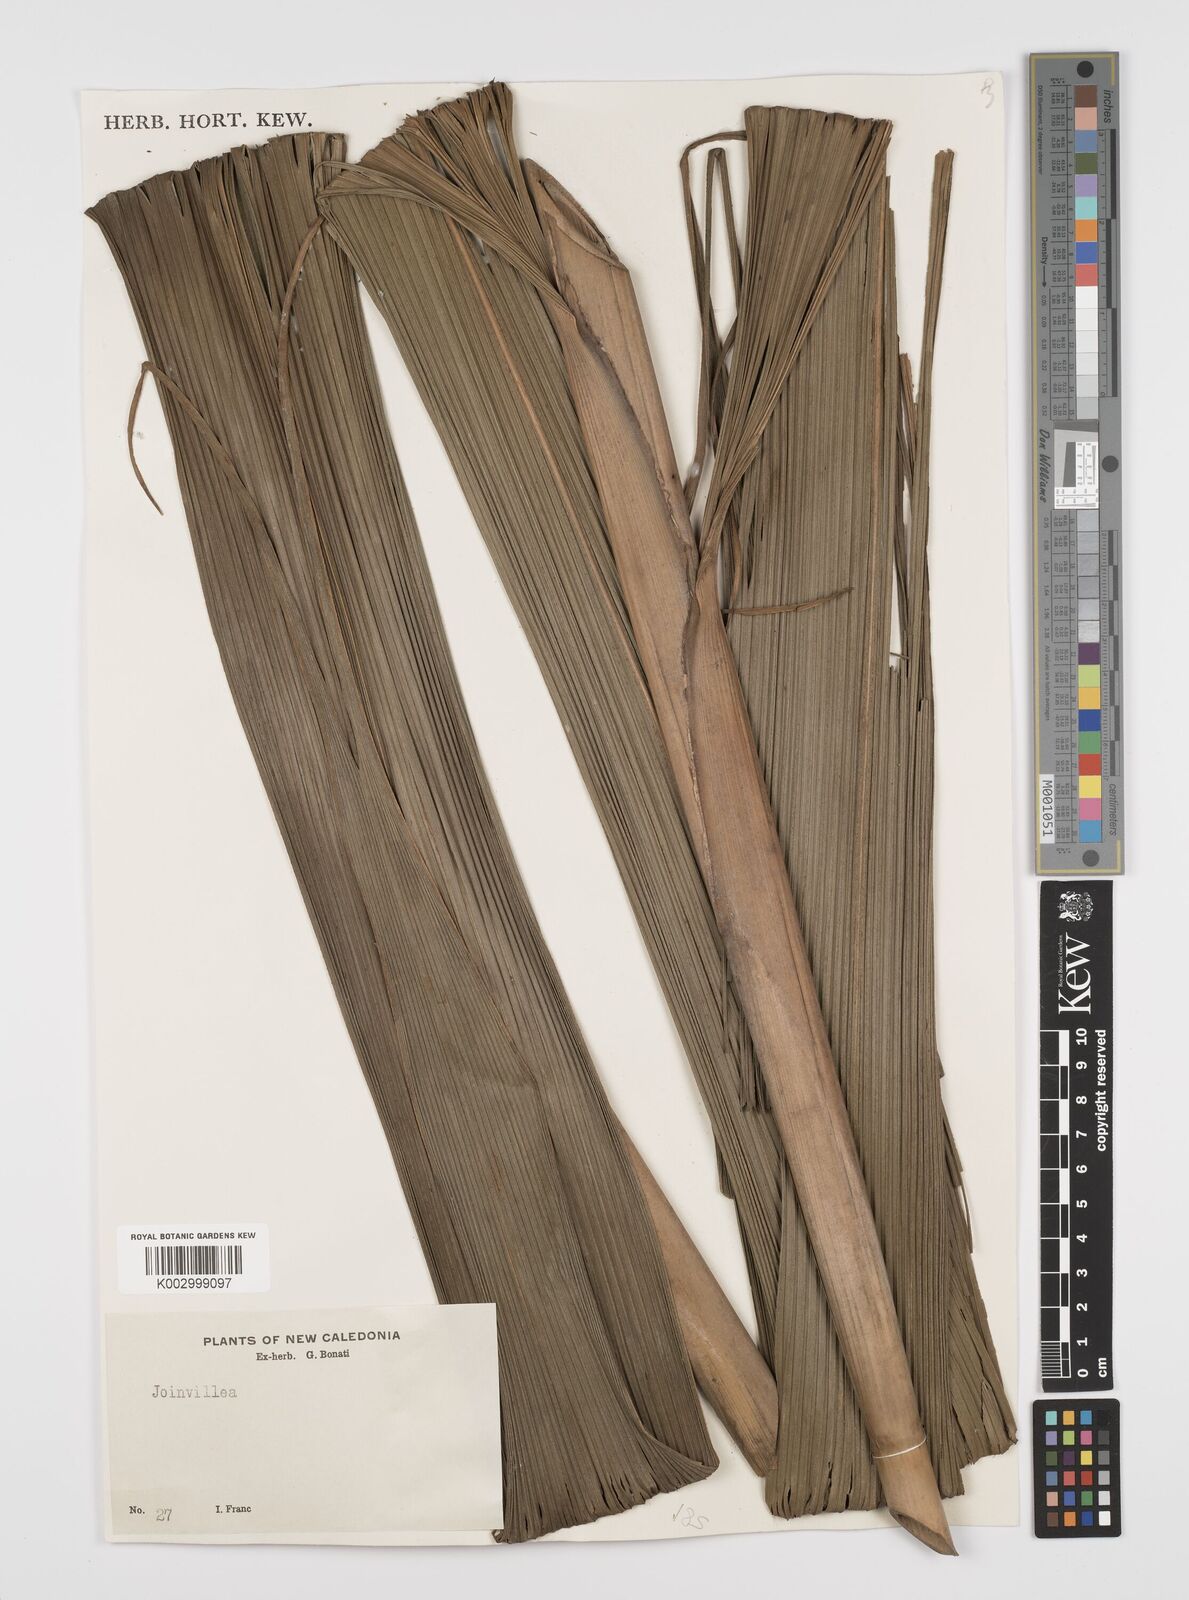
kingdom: Plantae
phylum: Tracheophyta
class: Liliopsida
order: Poales
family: Joinvilleaceae
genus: Joinvillea
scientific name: Joinvillea
